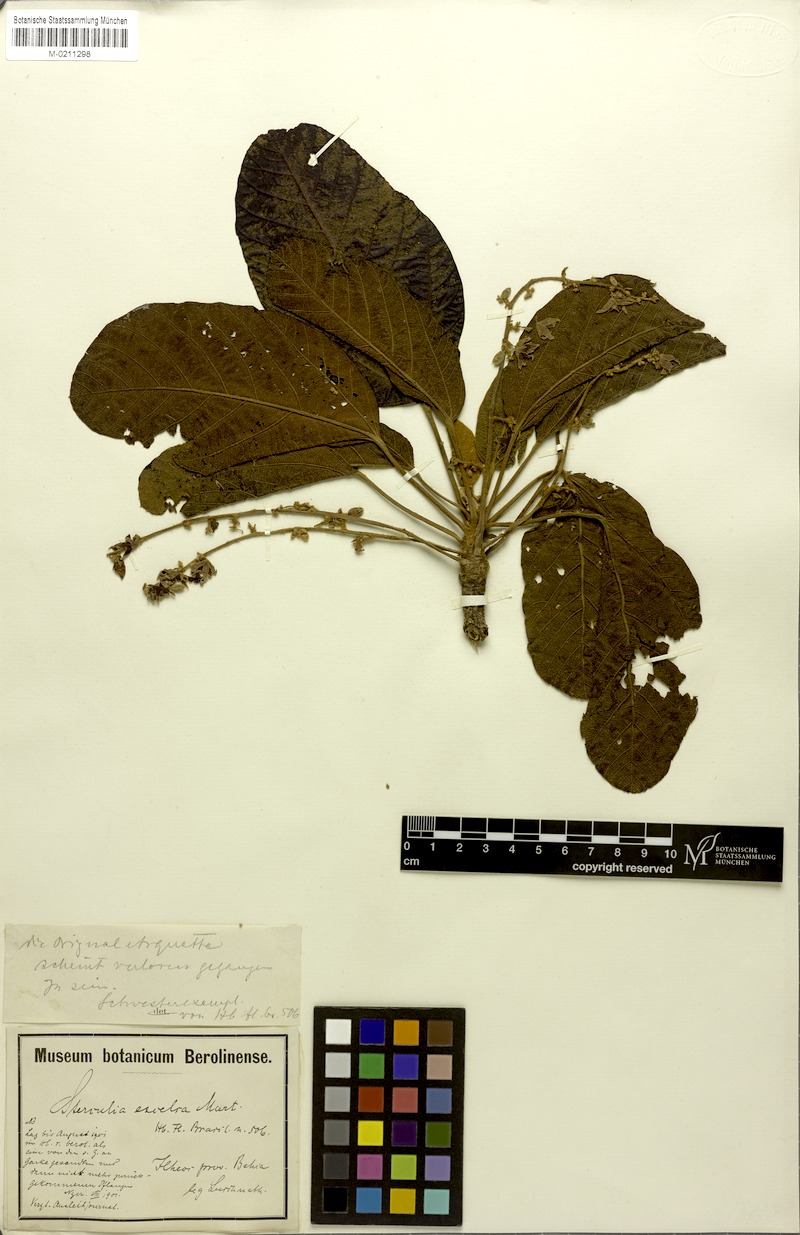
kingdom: Plantae
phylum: Tracheophyta
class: Magnoliopsida
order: Malvales
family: Malvaceae
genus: Sterculia
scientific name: Sterculia excelsa
